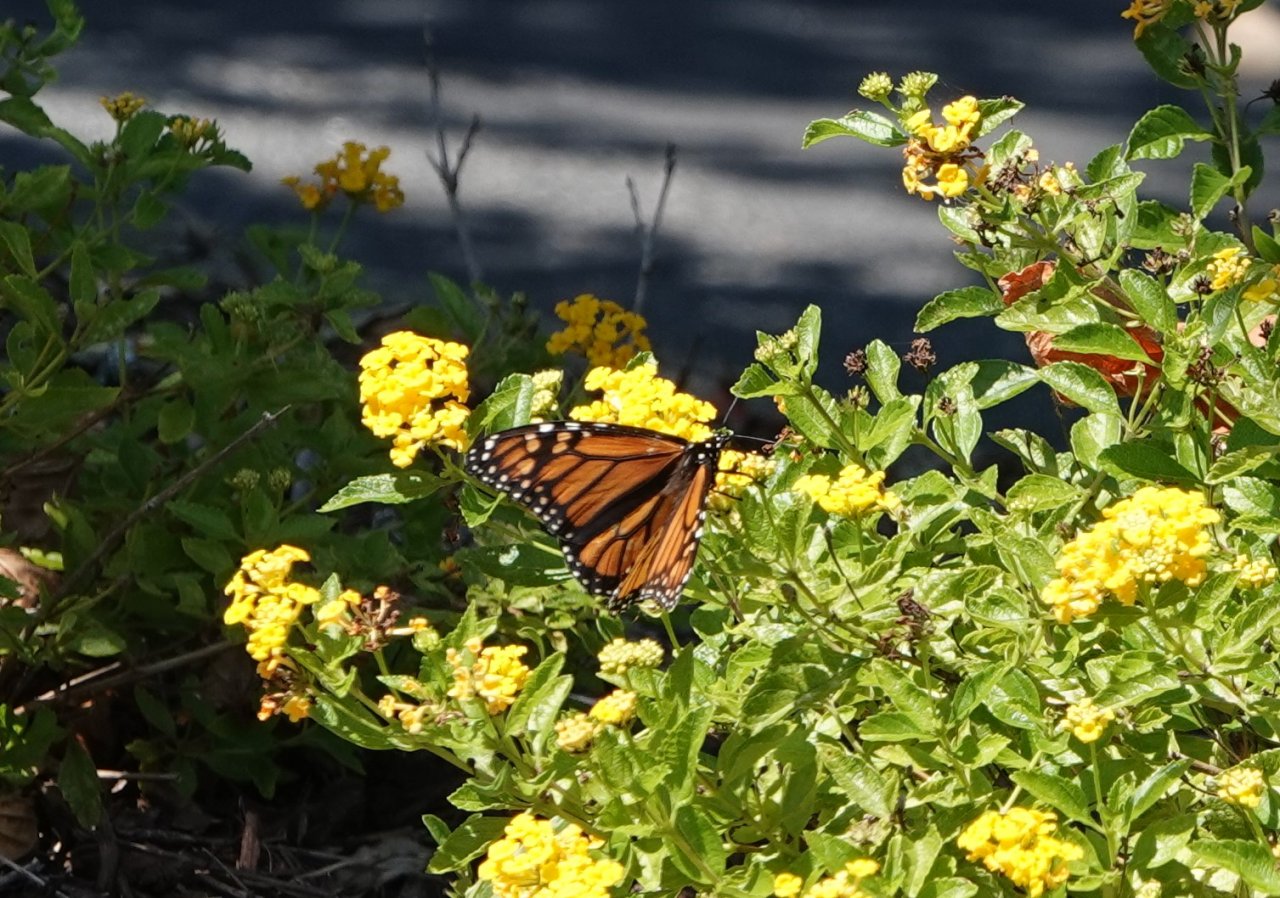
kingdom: Animalia
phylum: Arthropoda
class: Insecta
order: Lepidoptera
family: Nymphalidae
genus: Danaus
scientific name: Danaus plexippus
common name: Monarch
